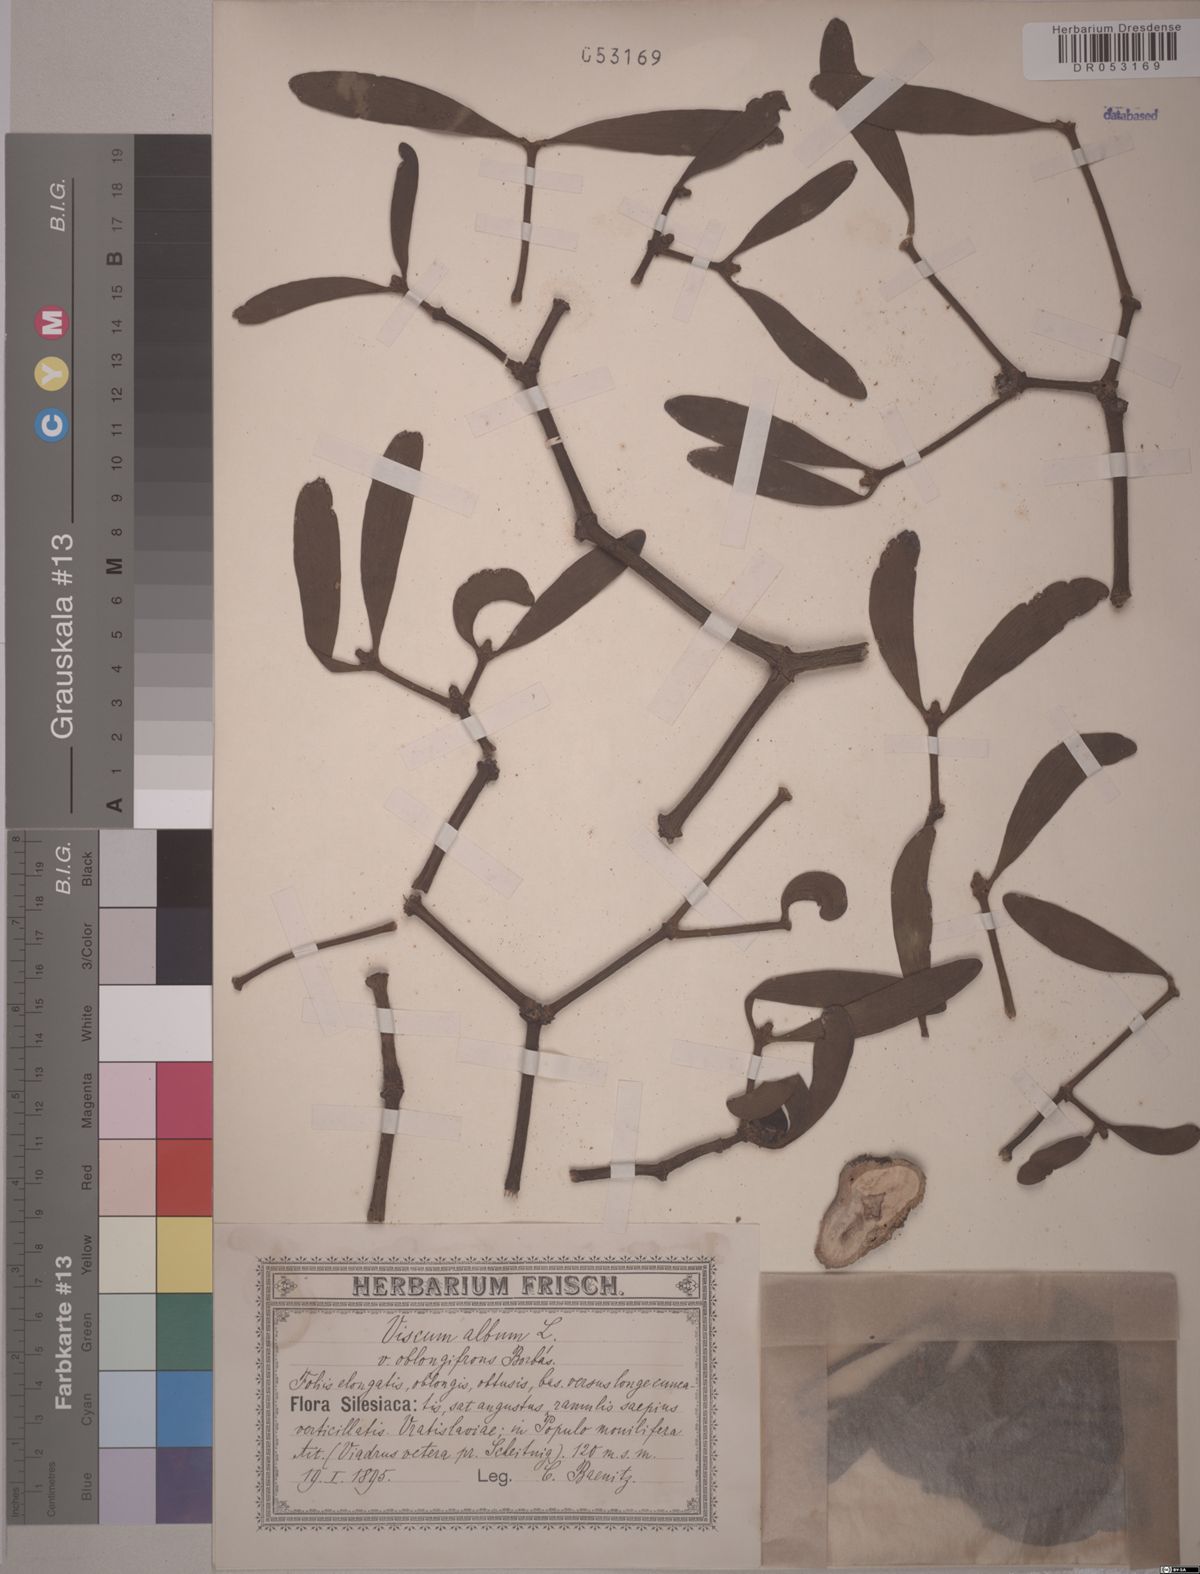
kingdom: Plantae
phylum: Tracheophyta
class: Magnoliopsida
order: Santalales
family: Viscaceae
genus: Viscum
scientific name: Viscum album
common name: Mistletoe
